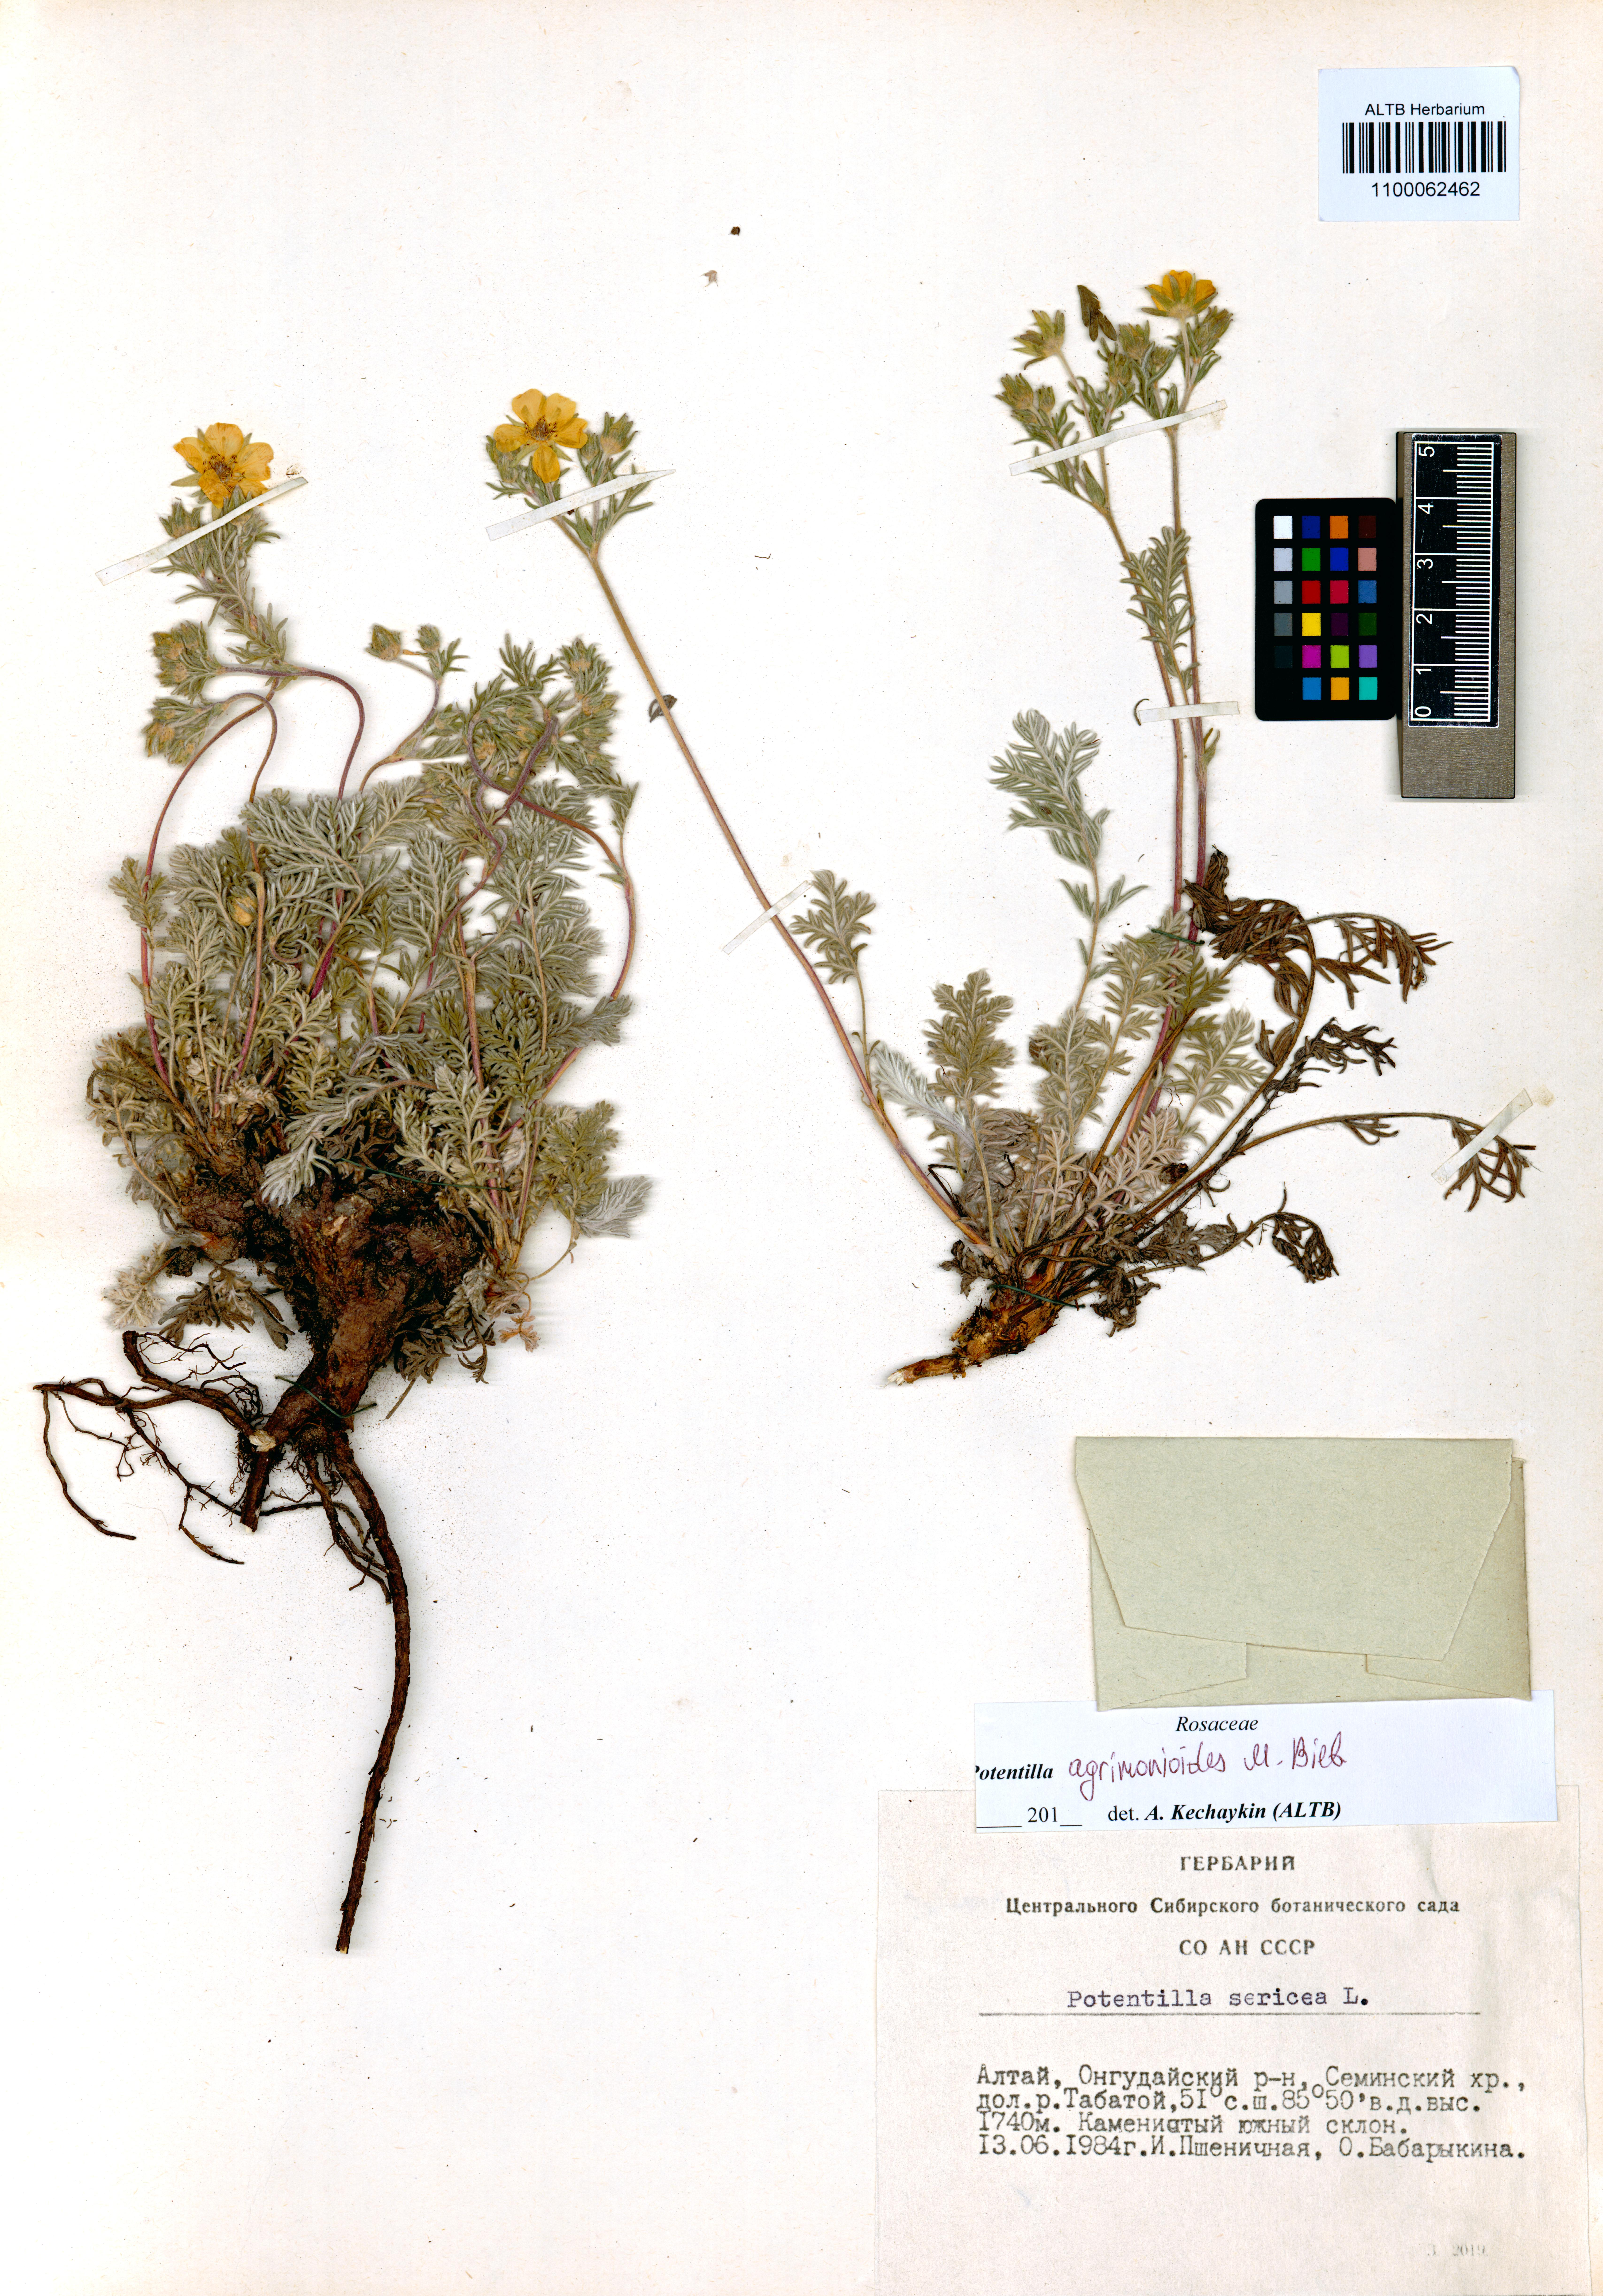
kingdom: Plantae
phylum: Tracheophyta
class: Magnoliopsida
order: Rosales
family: Rosaceae
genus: Potentilla
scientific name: Potentilla agrimonioides
